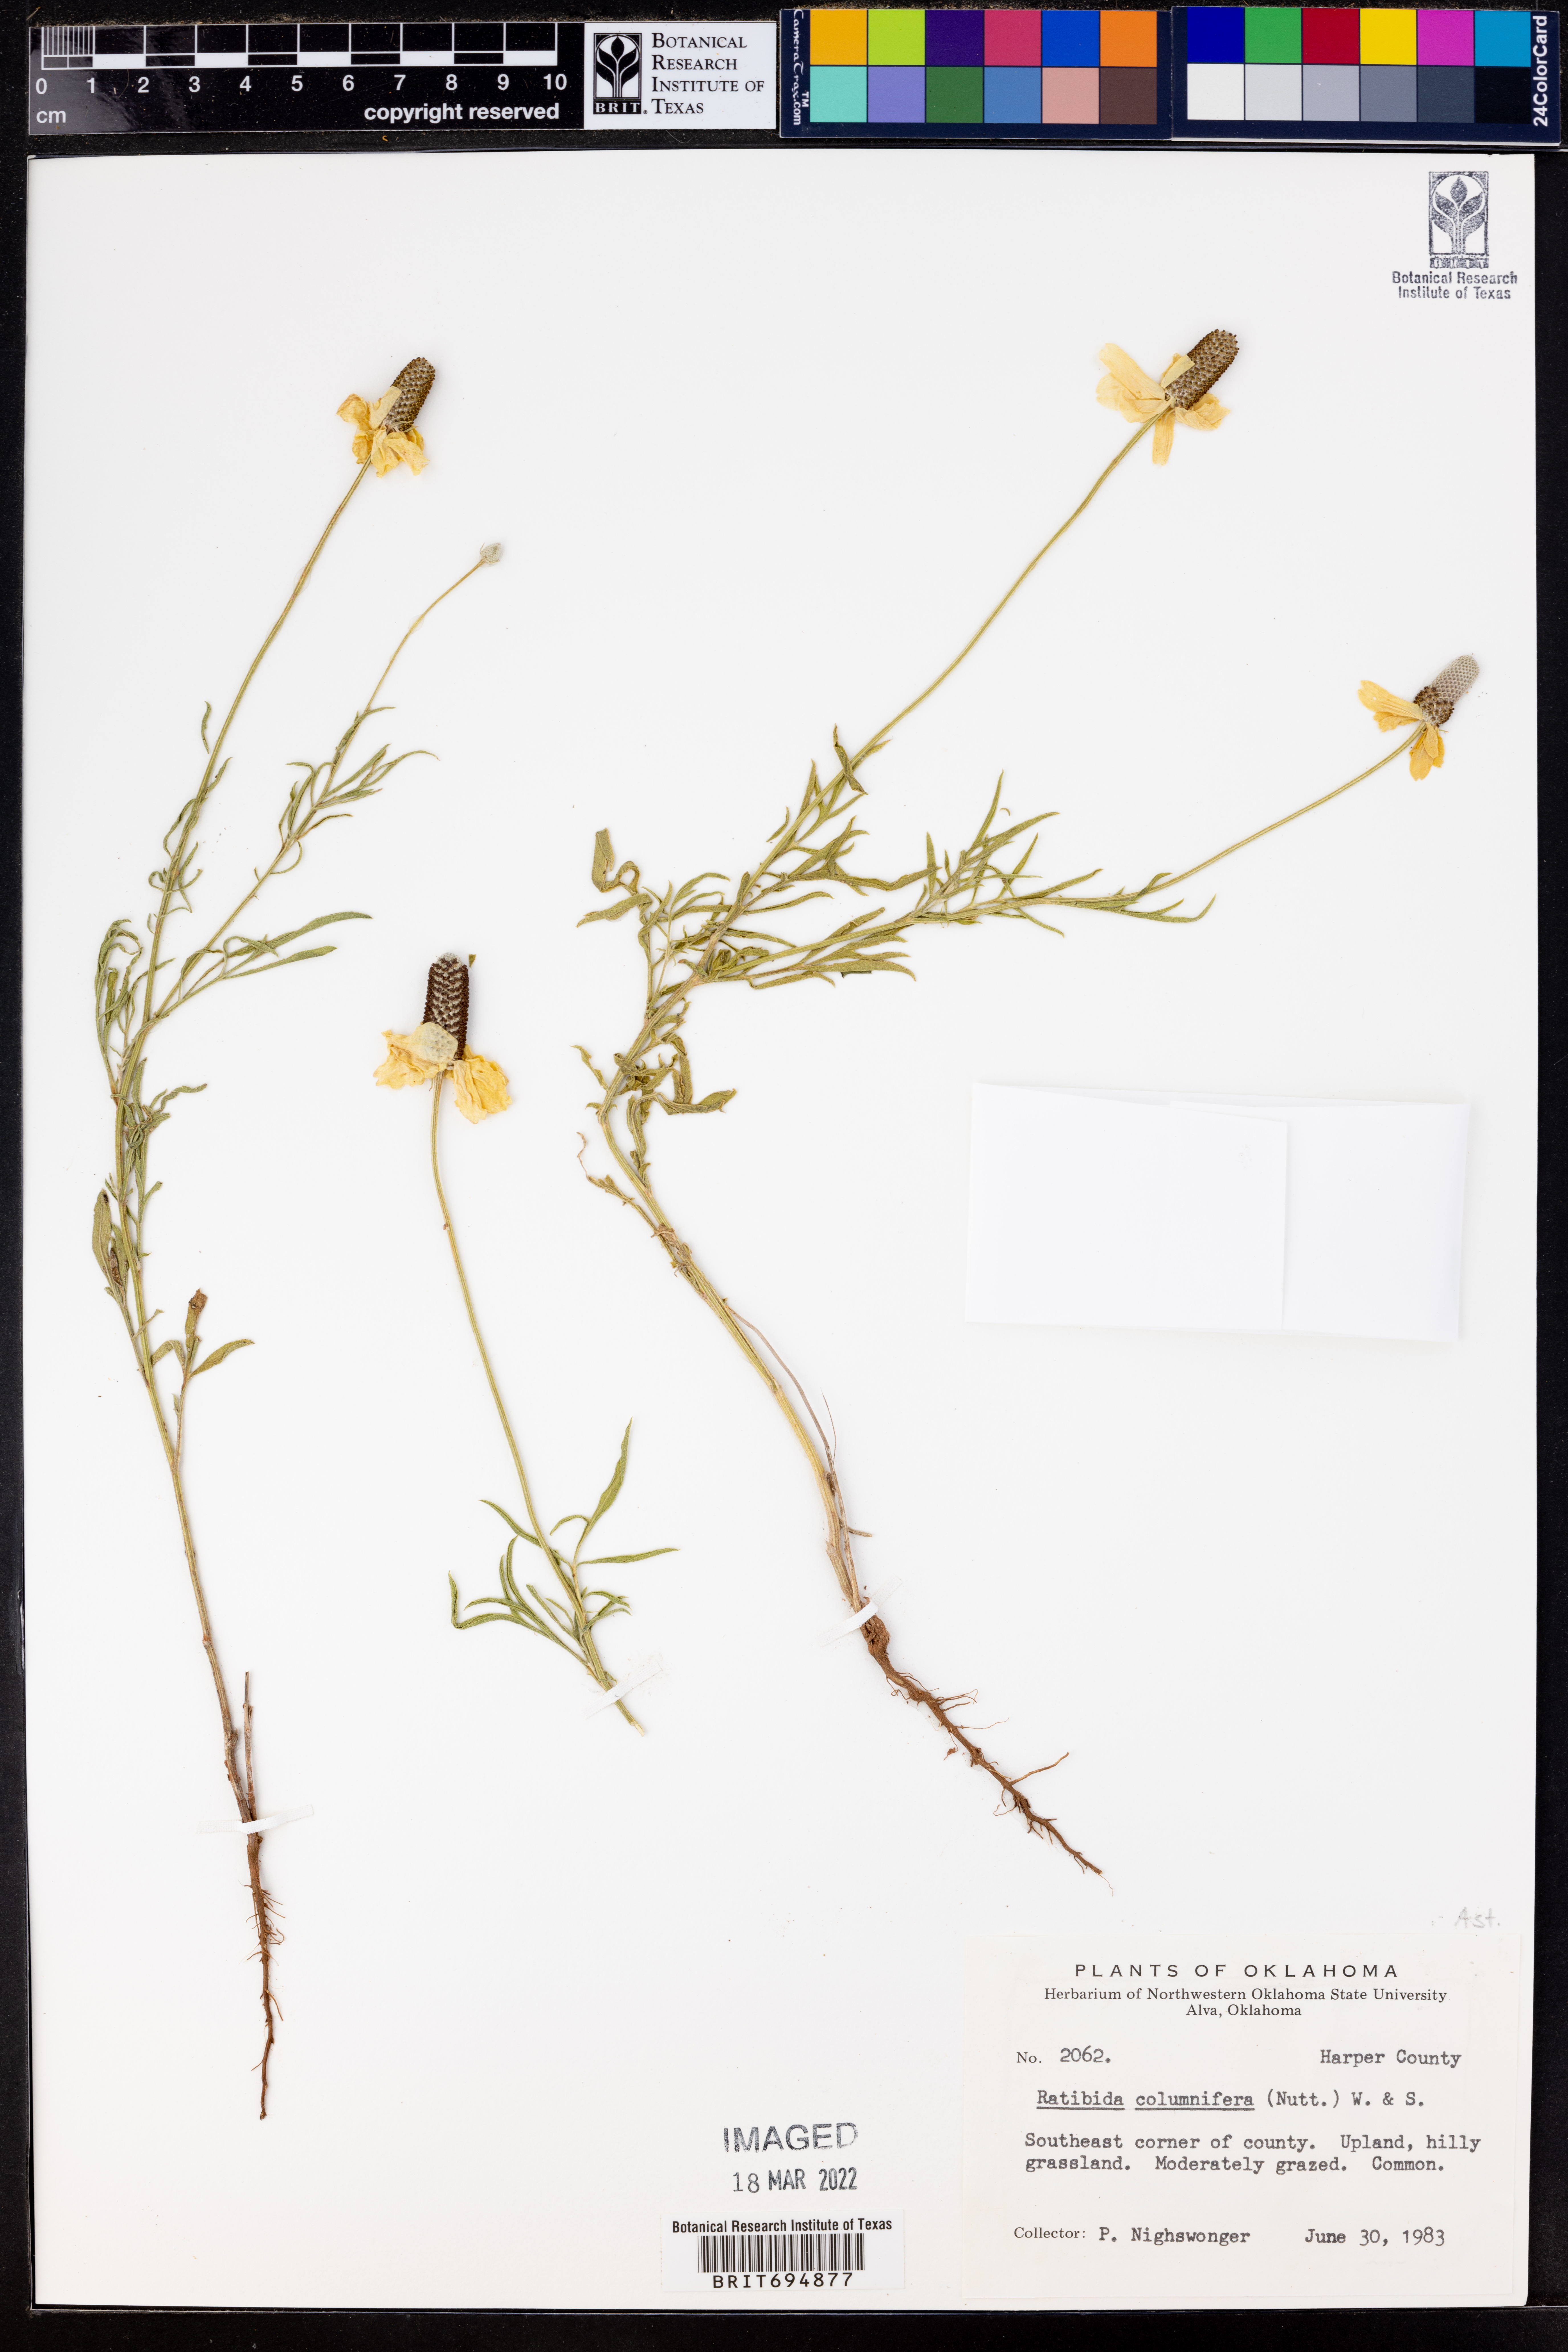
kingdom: Plantae
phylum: Tracheophyta
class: Magnoliopsida
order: Asterales
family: Asteraceae
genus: Ratibida
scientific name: Ratibida columnifera
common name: Prairie coneflower
